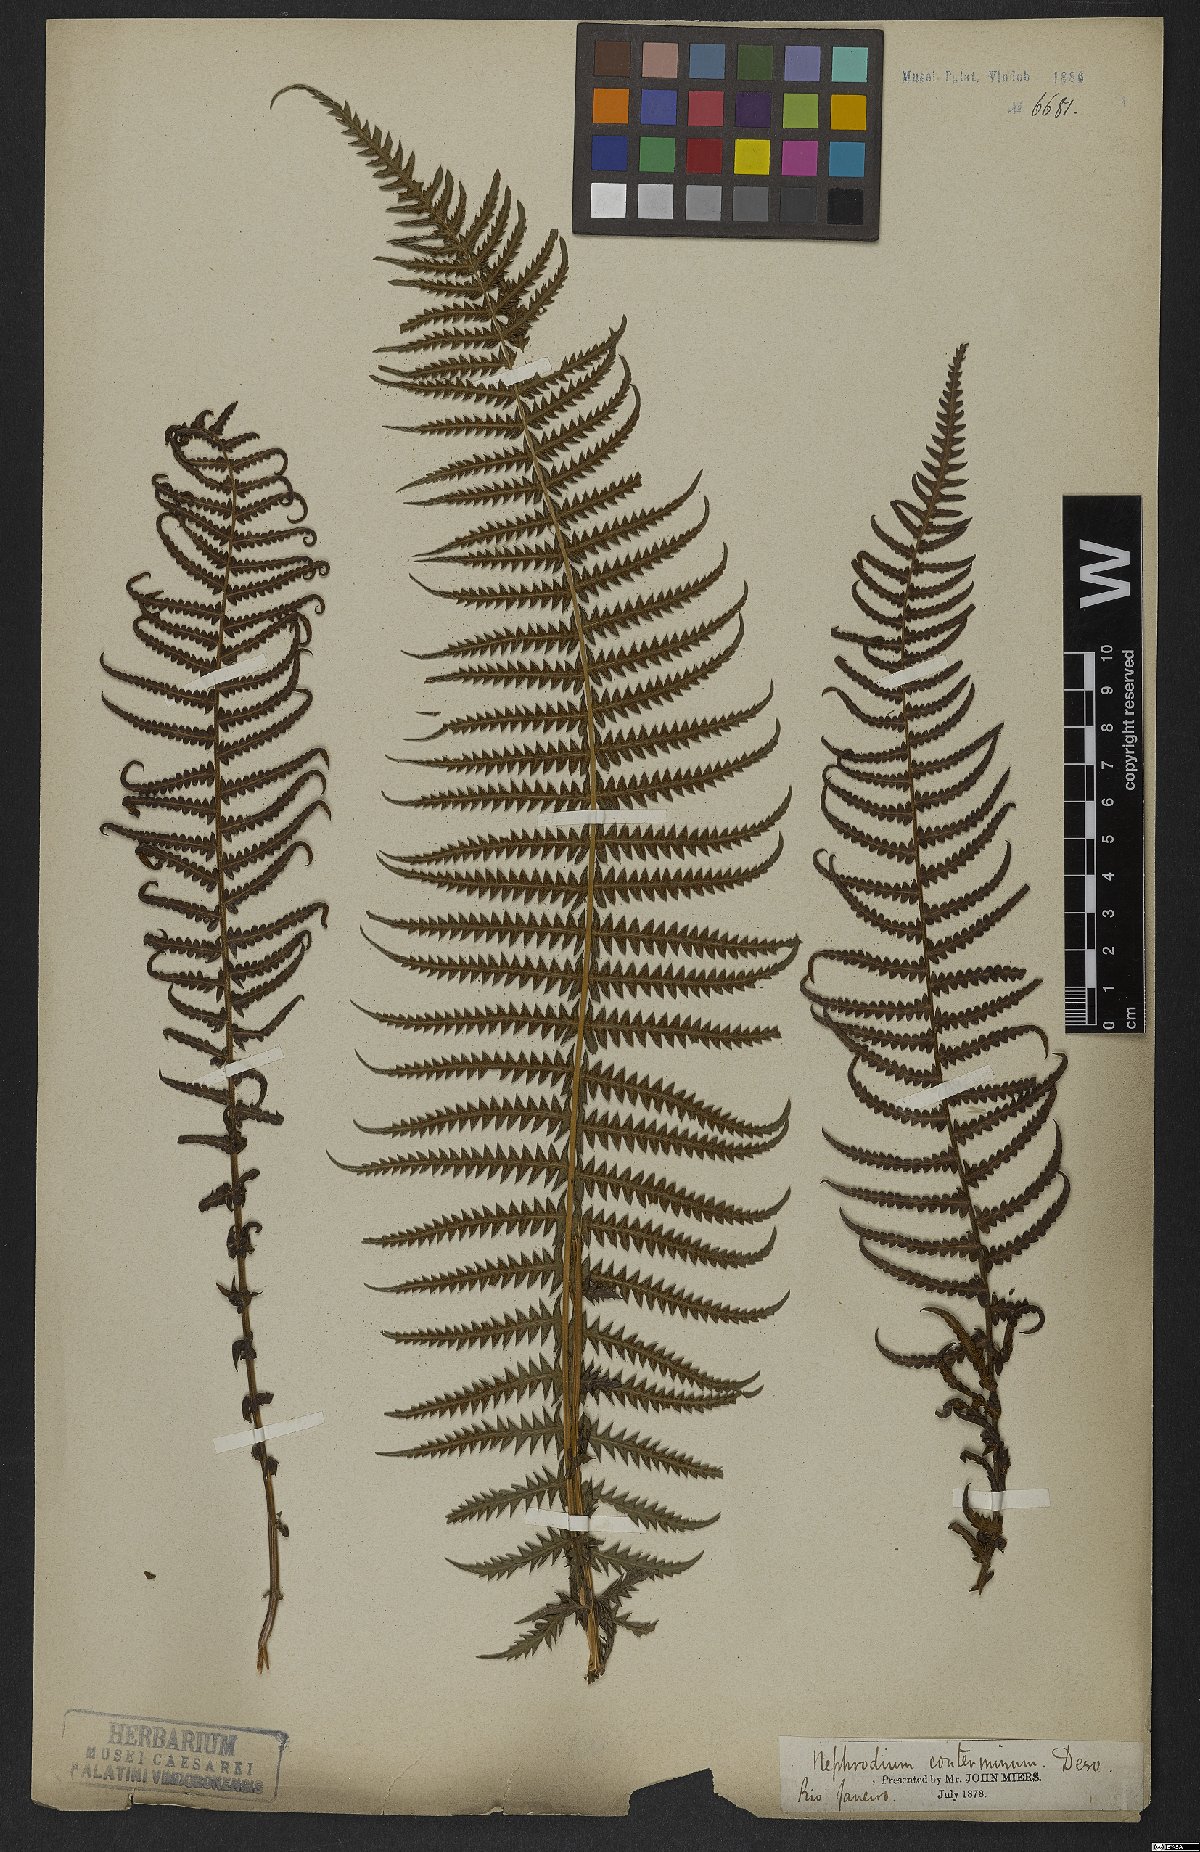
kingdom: Plantae
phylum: Tracheophyta
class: Polypodiopsida
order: Polypodiales
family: Thelypteridaceae
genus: Amauropelta
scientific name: Amauropelta opposita
